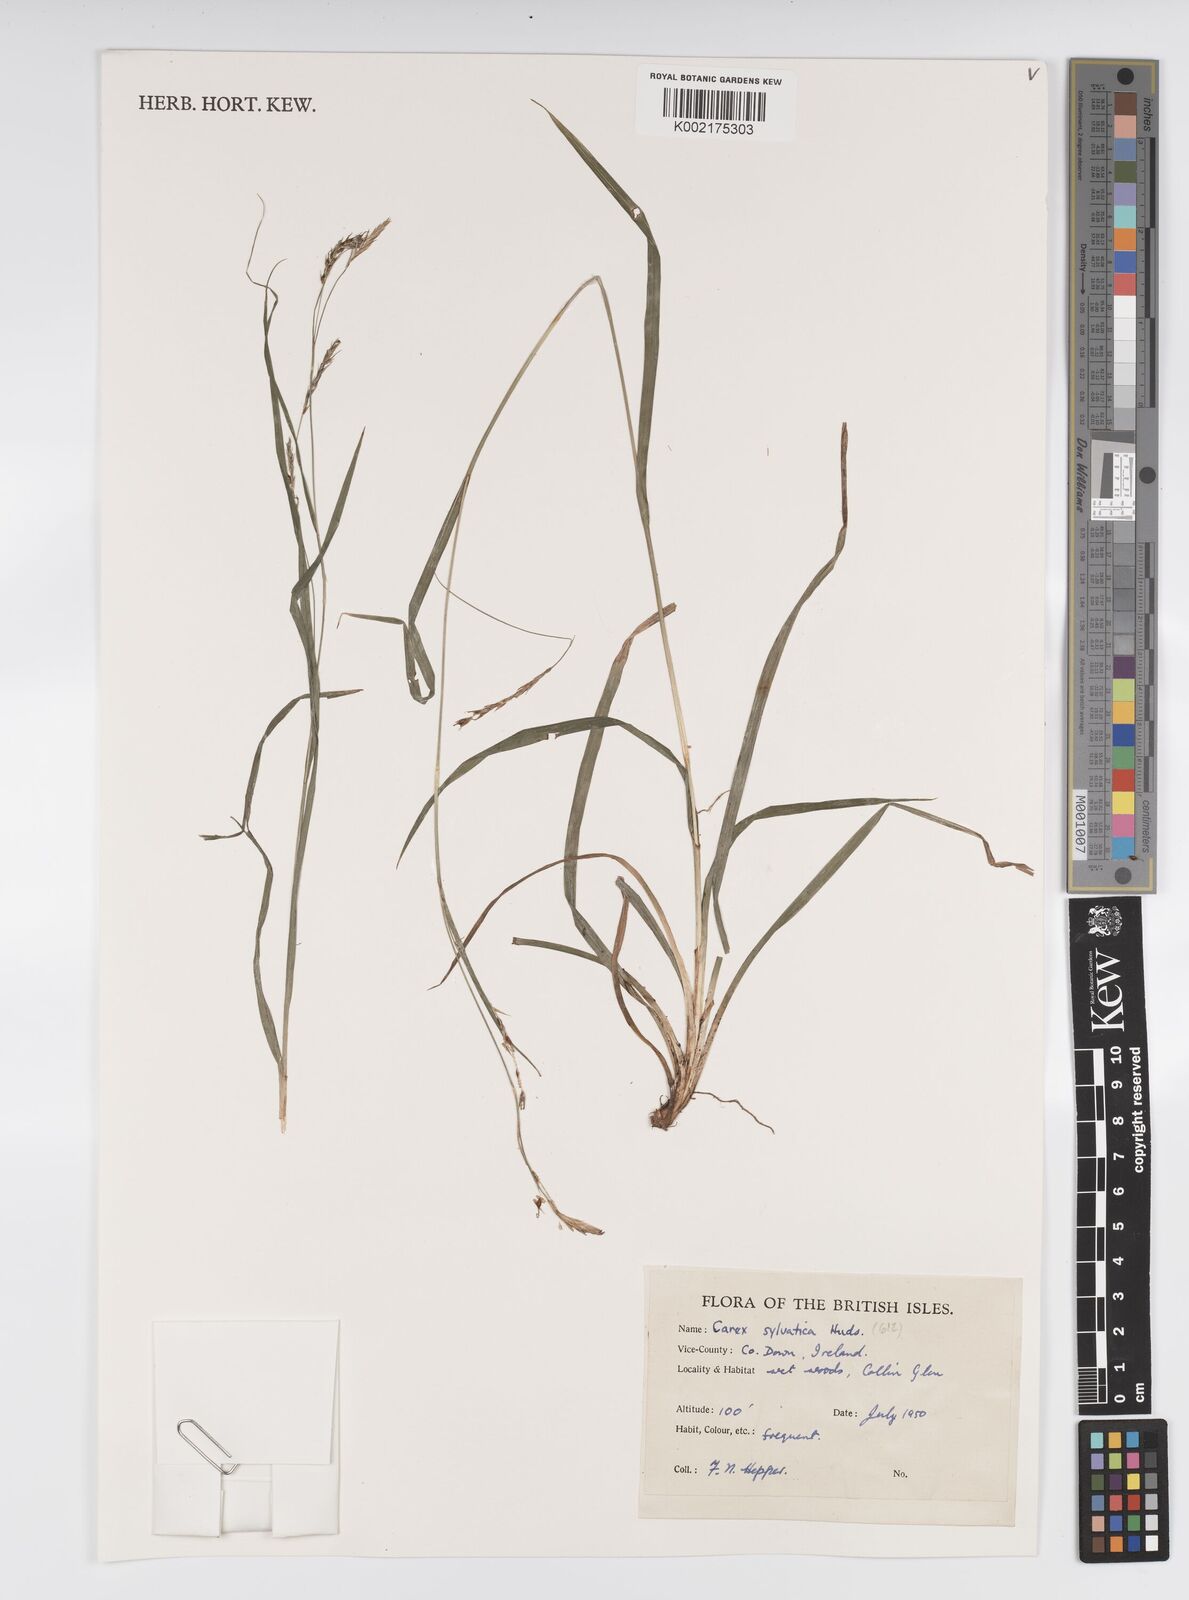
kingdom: Plantae
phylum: Tracheophyta
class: Liliopsida
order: Poales
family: Cyperaceae
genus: Carex
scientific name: Carex sylvatica
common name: Wood-sedge
